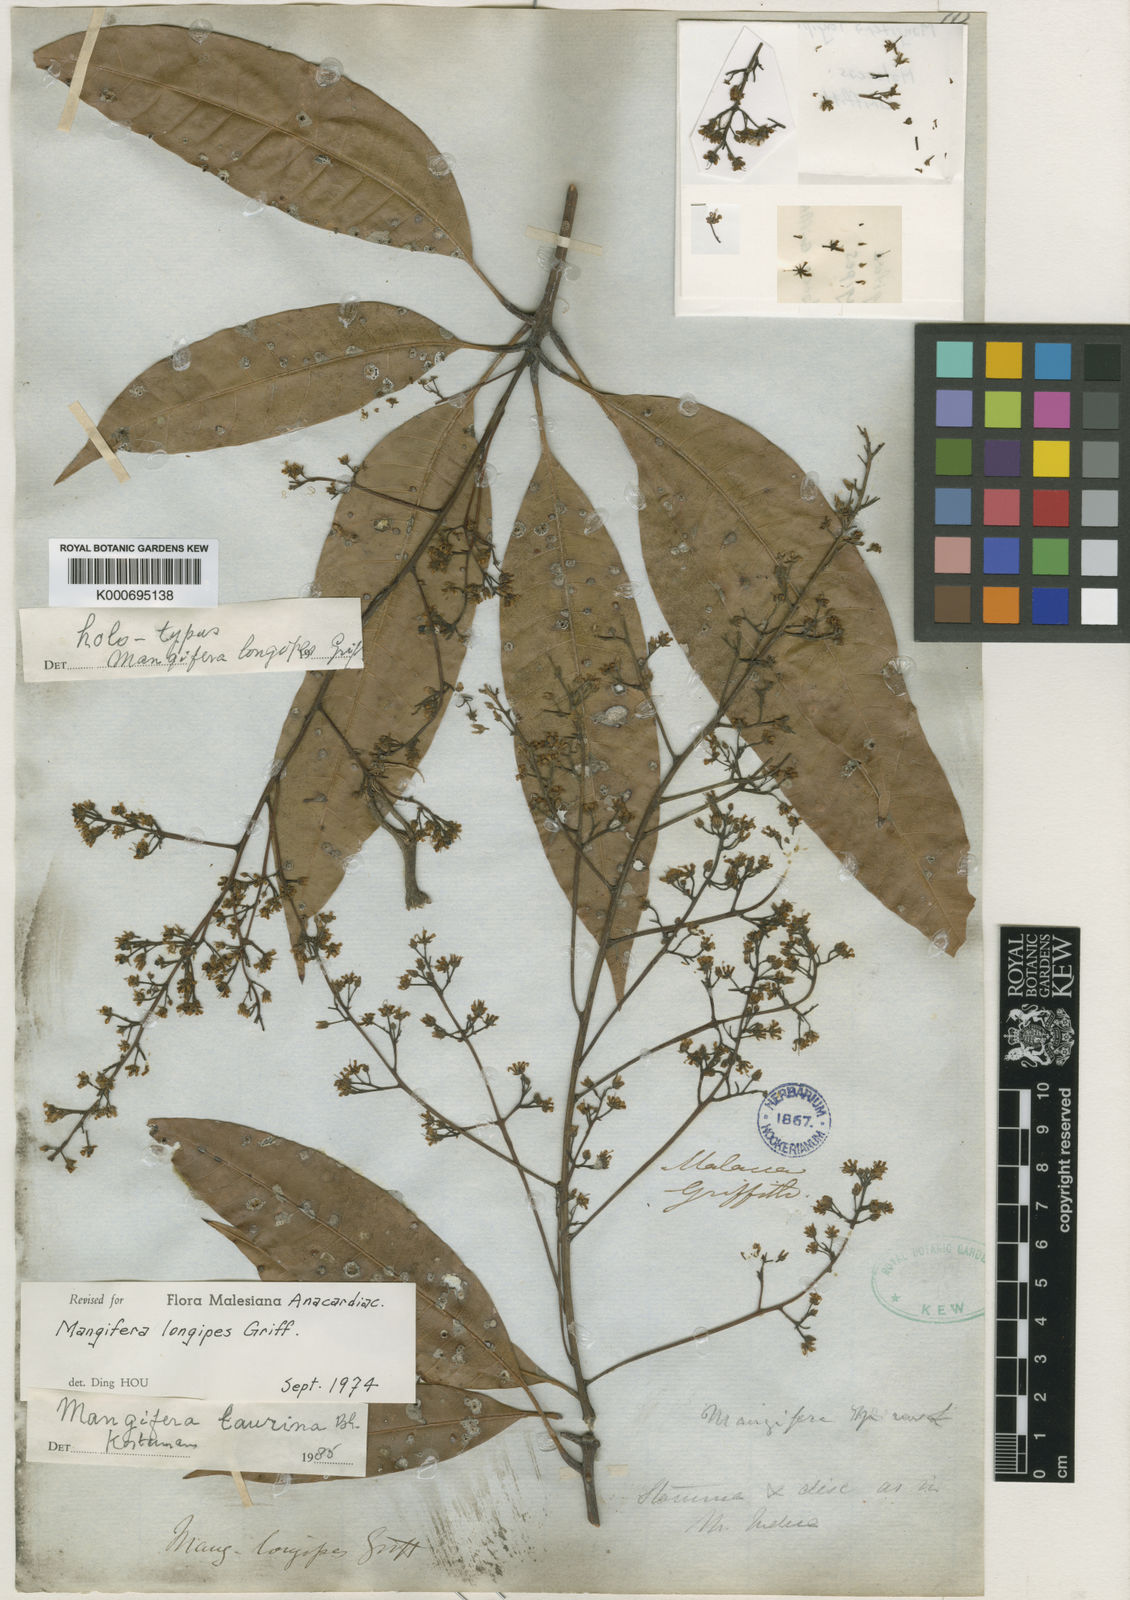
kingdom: Plantae
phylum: Tracheophyta
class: Magnoliopsida
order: Sapindales
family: Anacardiaceae
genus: Mangifera
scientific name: Mangifera laurina
